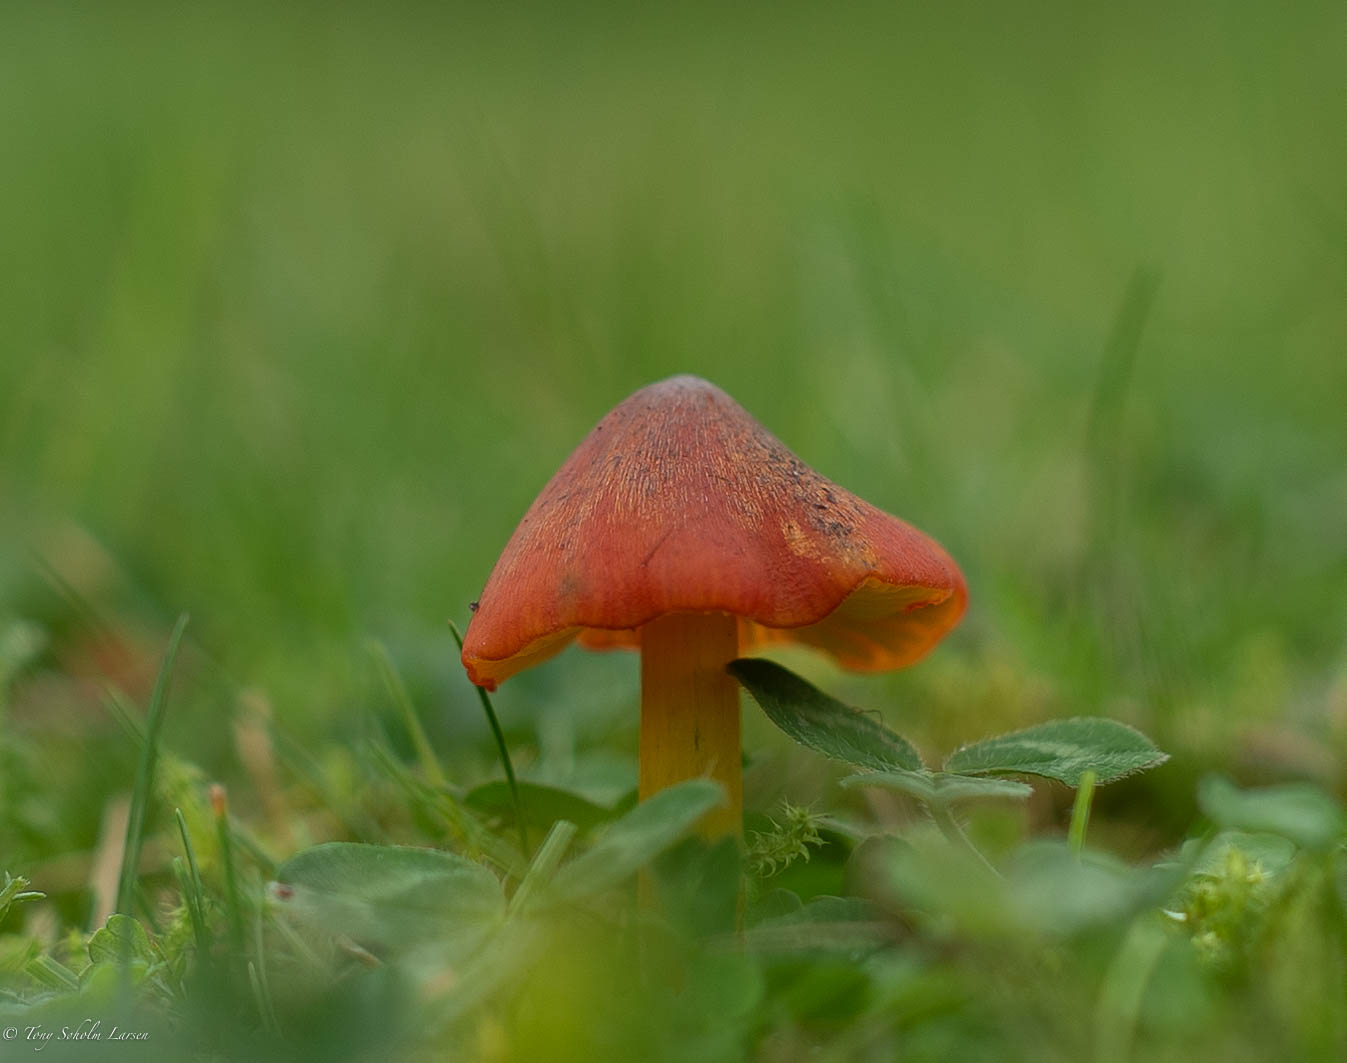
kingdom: Fungi
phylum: Basidiomycota
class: Agaricomycetes
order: Agaricales
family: Hygrophoraceae
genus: Hygrocybe
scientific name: Hygrocybe conica
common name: kegle-vokshat
